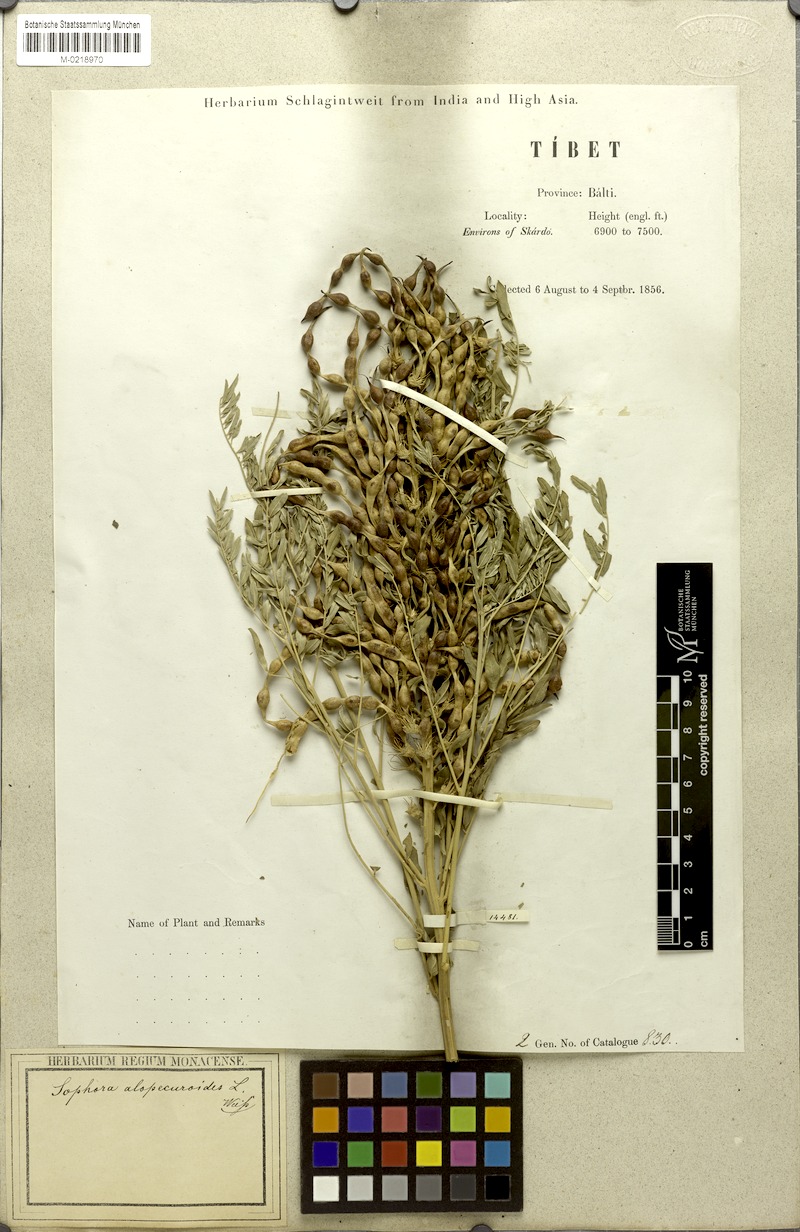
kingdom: Plantae
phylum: Tracheophyta
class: Magnoliopsida
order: Fabales
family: Fabaceae
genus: Sophora
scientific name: Sophora alopecuroides
